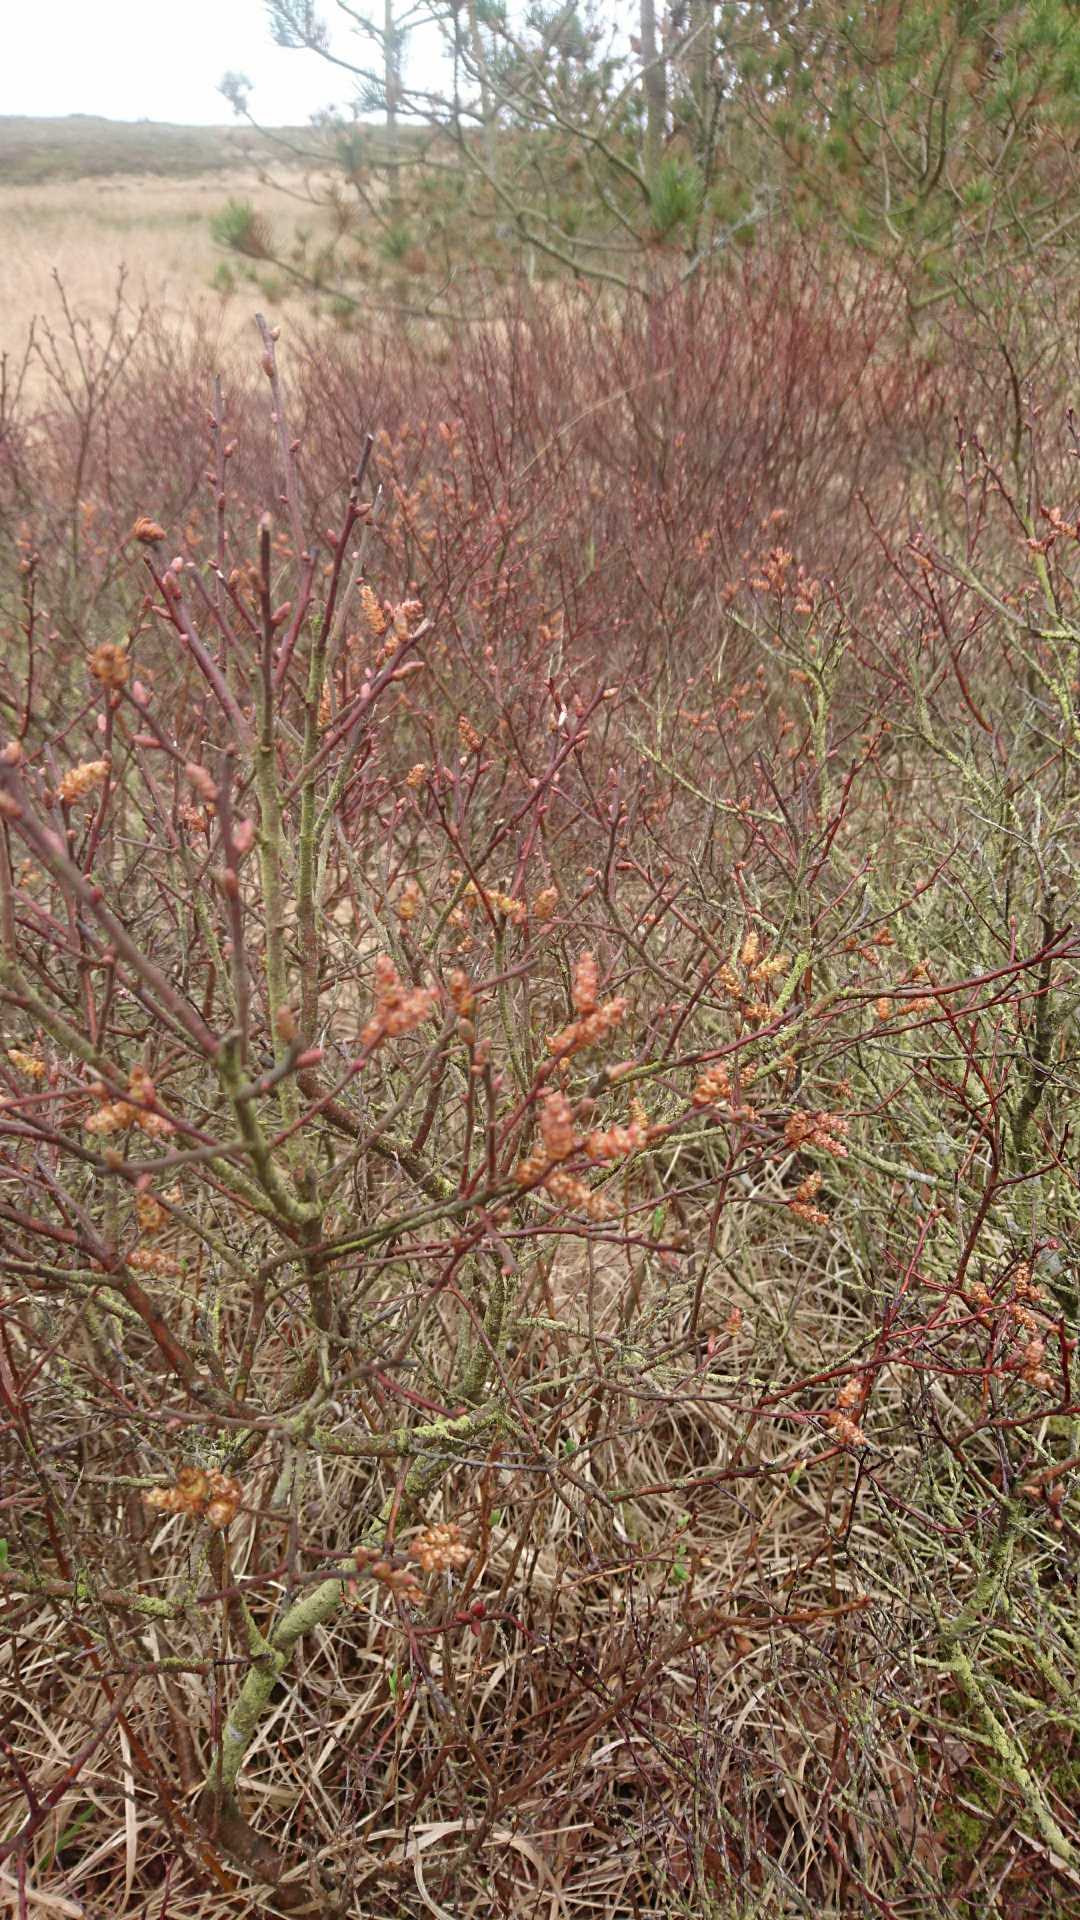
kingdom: Plantae
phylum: Tracheophyta
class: Magnoliopsida
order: Fagales
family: Myricaceae
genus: Myrica
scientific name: Myrica gale
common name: Pors
